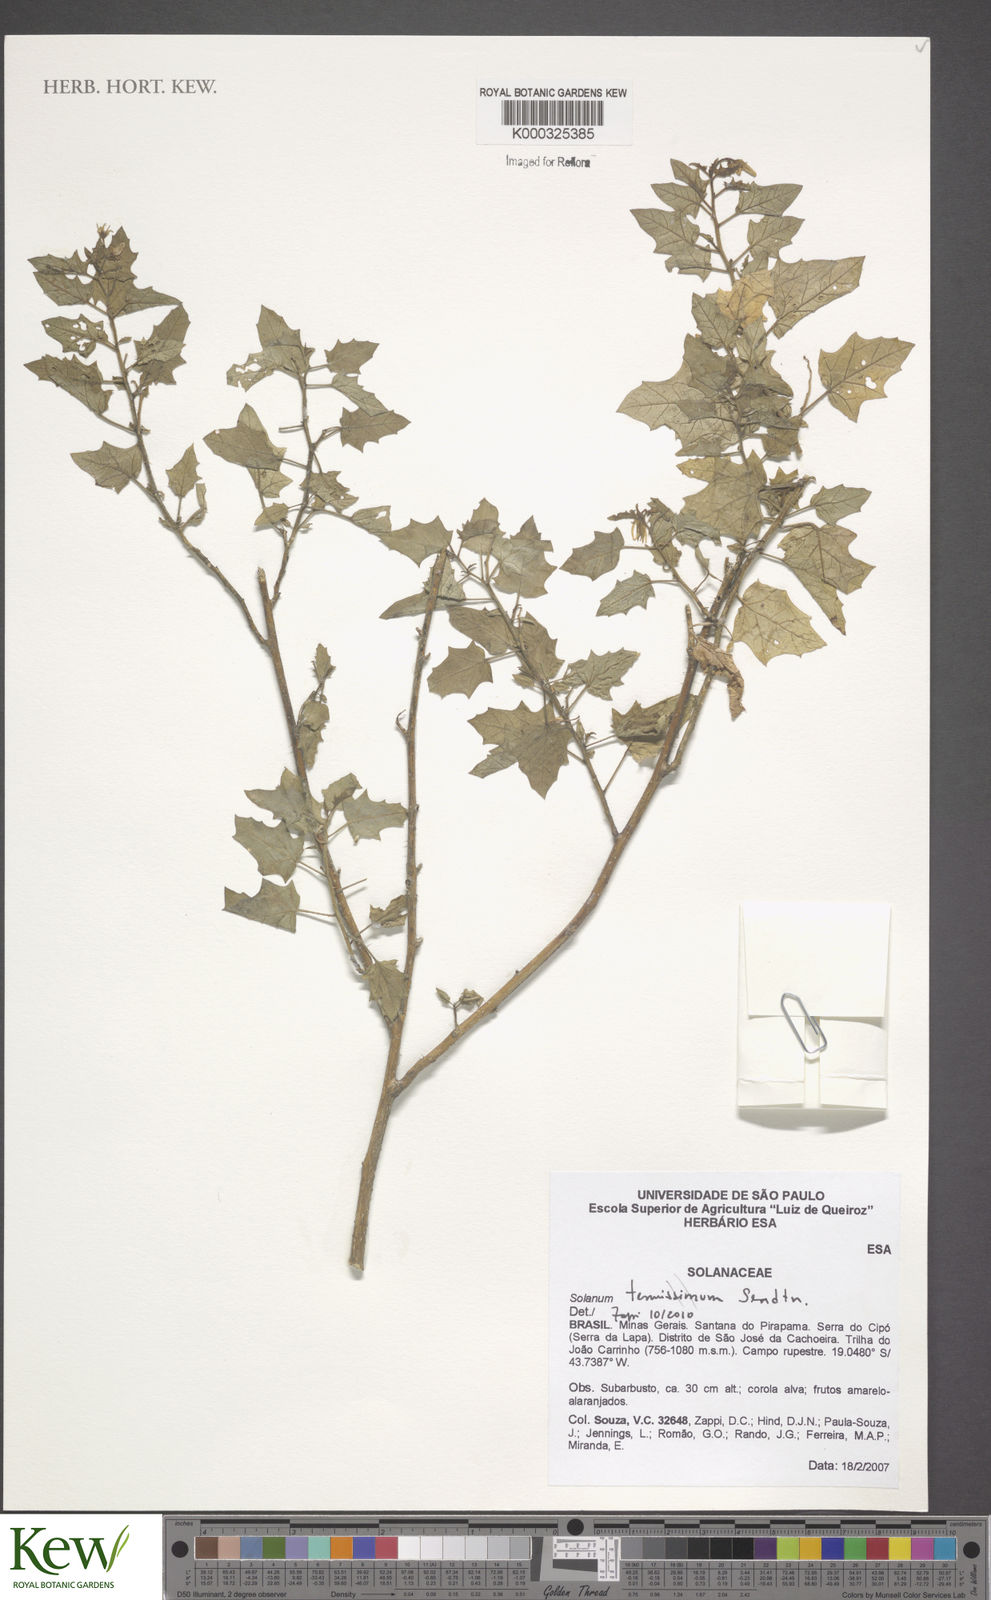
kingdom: Plantae
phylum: Tracheophyta
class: Magnoliopsida
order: Solanales
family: Solanaceae
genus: Solanum
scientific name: Solanum tenuissimum
